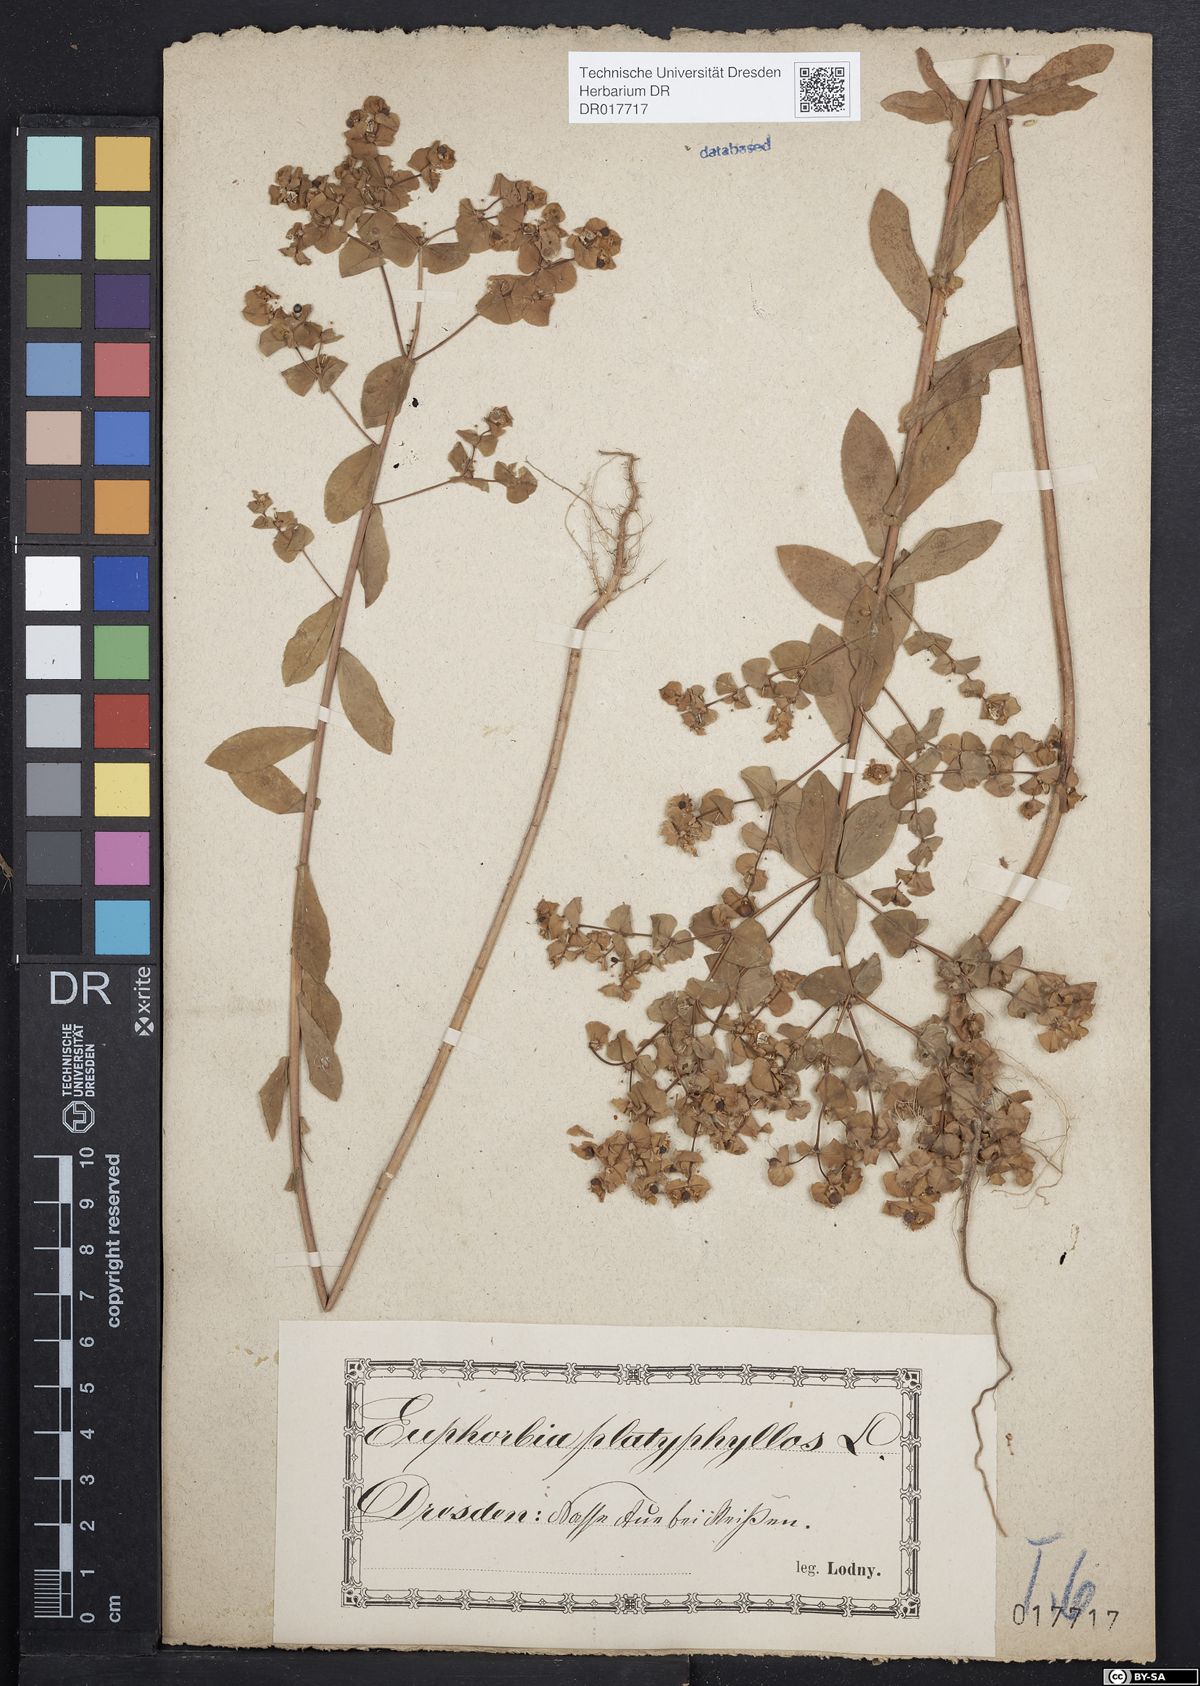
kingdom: Plantae
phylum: Tracheophyta
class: Magnoliopsida
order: Malpighiales
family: Euphorbiaceae
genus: Euphorbia
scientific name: Euphorbia platyphyllos
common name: Broad-leaved spurge
